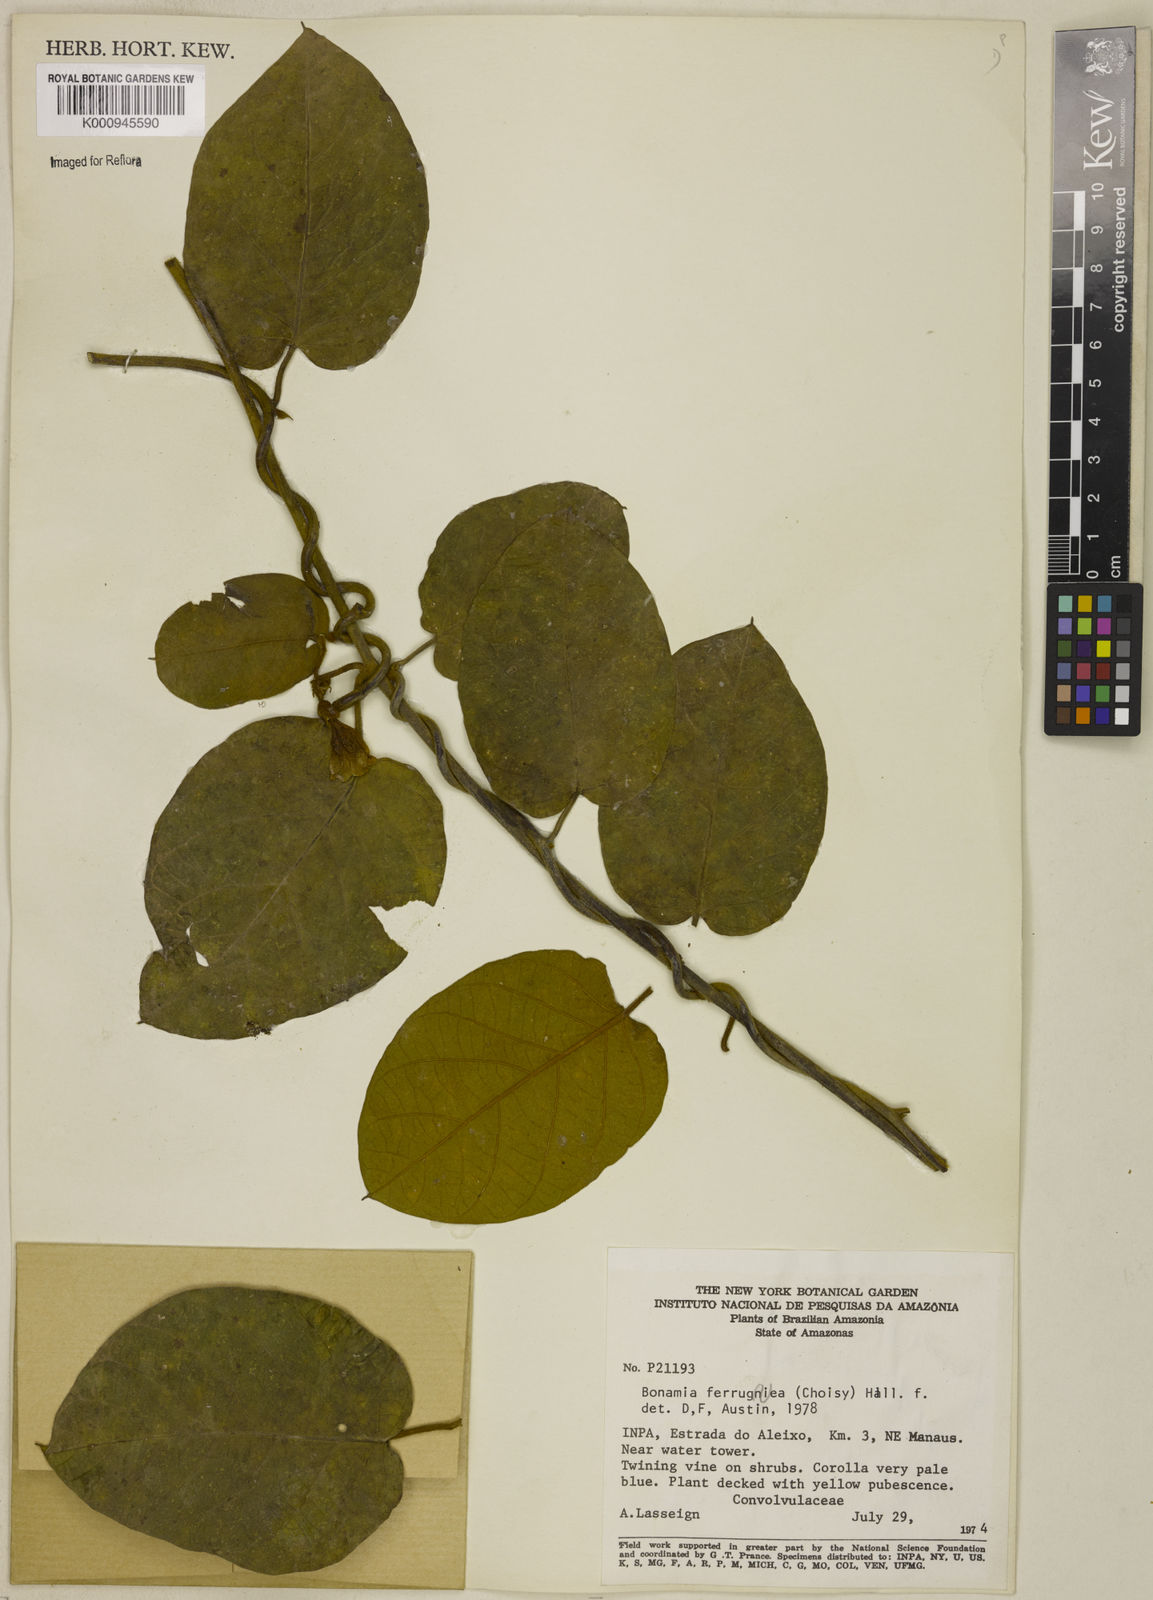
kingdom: Plantae
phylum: Tracheophyta
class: Magnoliopsida
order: Solanales
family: Convolvulaceae
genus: Bonamia
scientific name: Bonamia ferruginea
